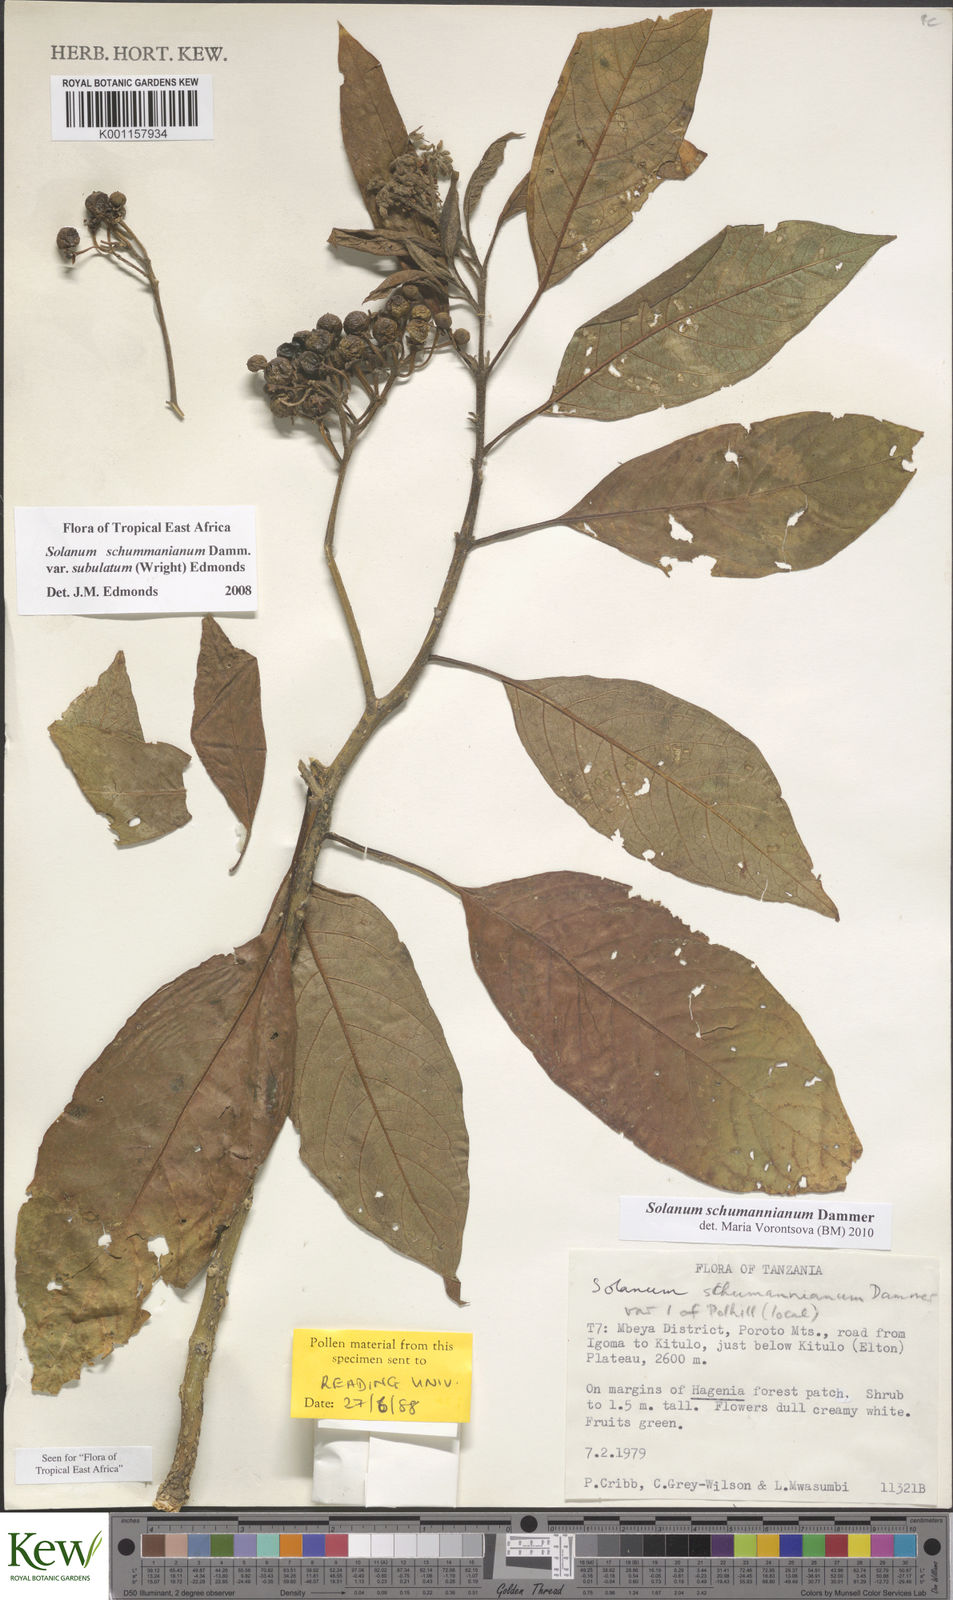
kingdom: Plantae
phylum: Tracheophyta
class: Magnoliopsida
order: Solanales
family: Solanaceae
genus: Solanum
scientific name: Solanum schumannianum
